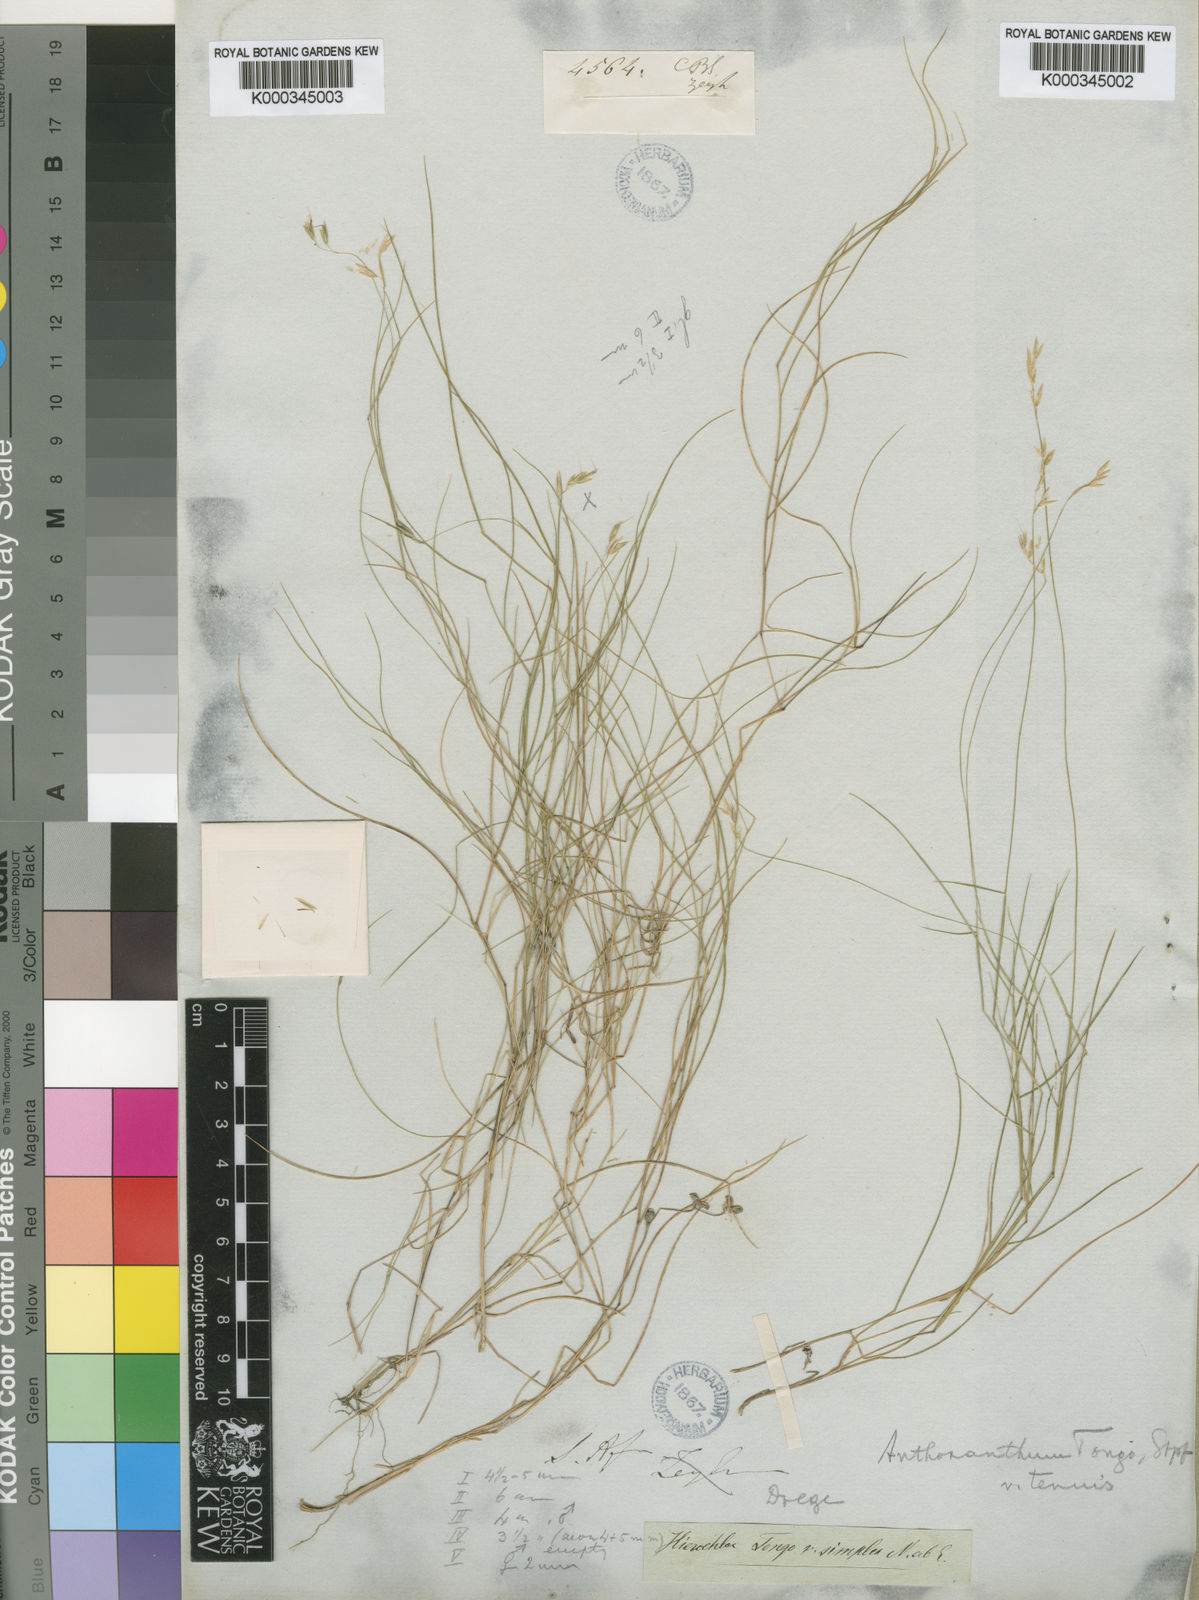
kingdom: Plantae
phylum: Tracheophyta
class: Liliopsida
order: Poales
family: Poaceae
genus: Anthoxanthum
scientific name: Anthoxanthum tongo
